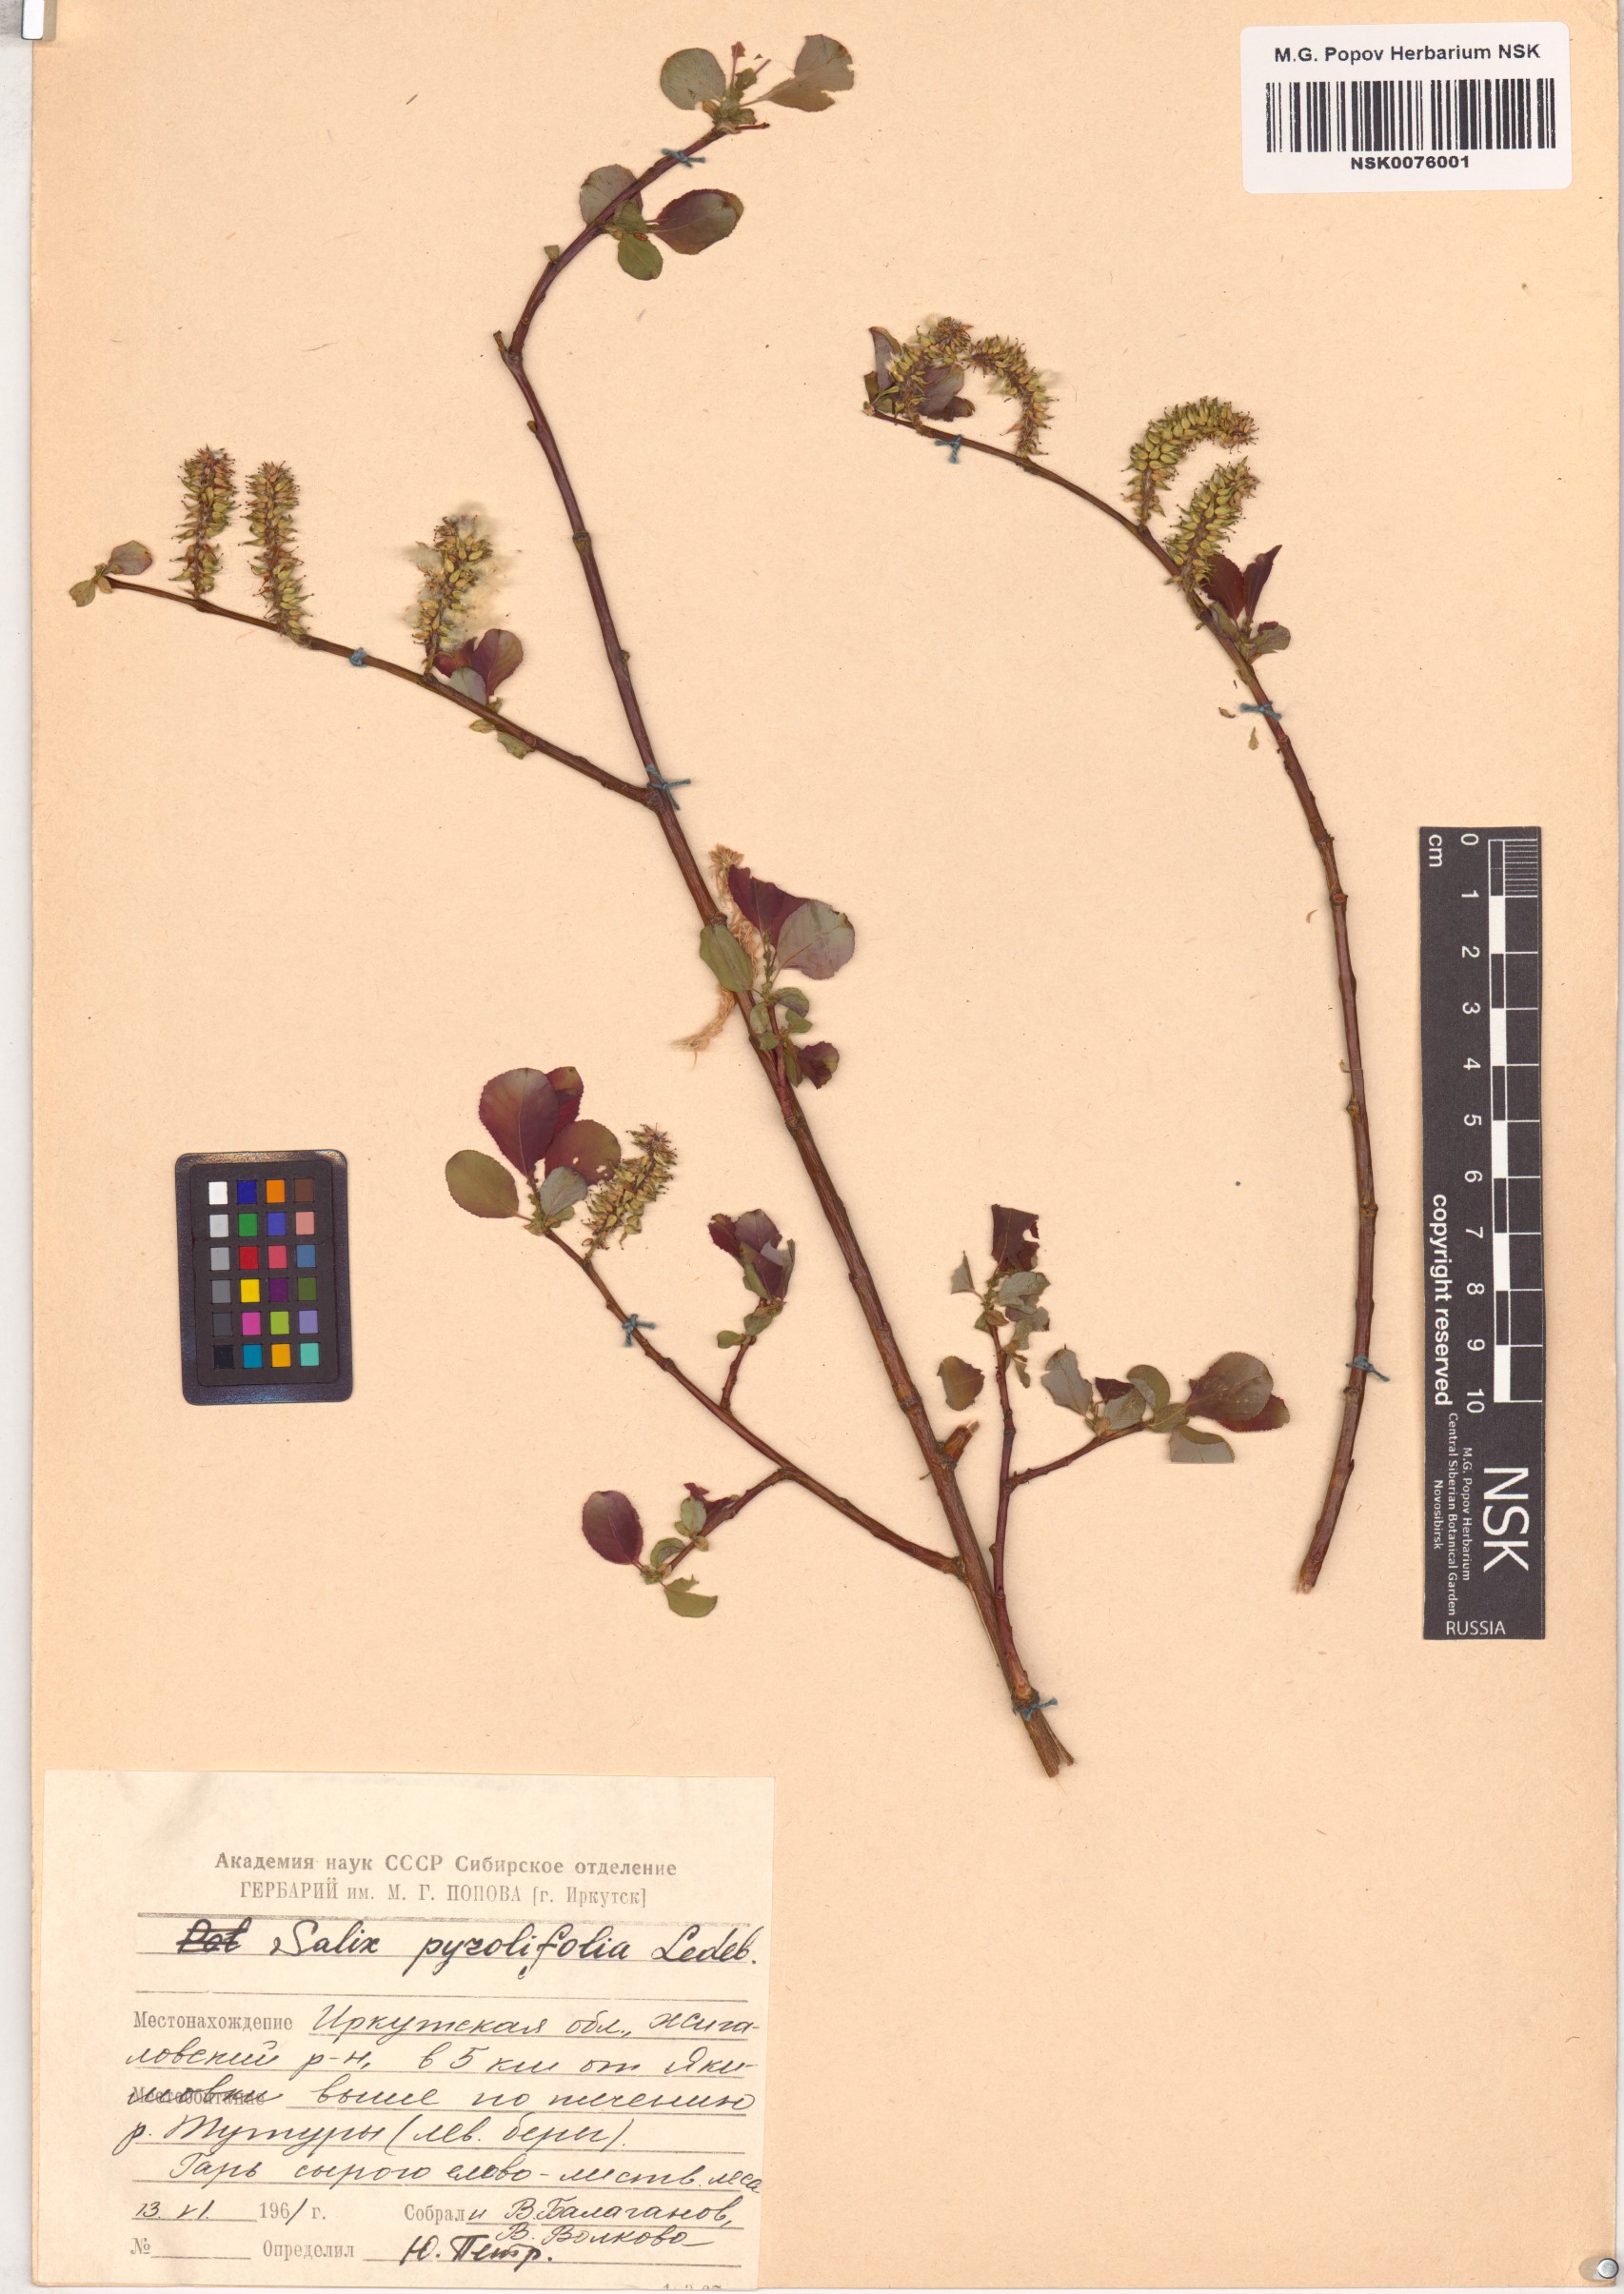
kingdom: Plantae
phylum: Tracheophyta
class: Magnoliopsida
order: Malpighiales
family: Salicaceae
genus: Salix
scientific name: Salix pyrolifolia
